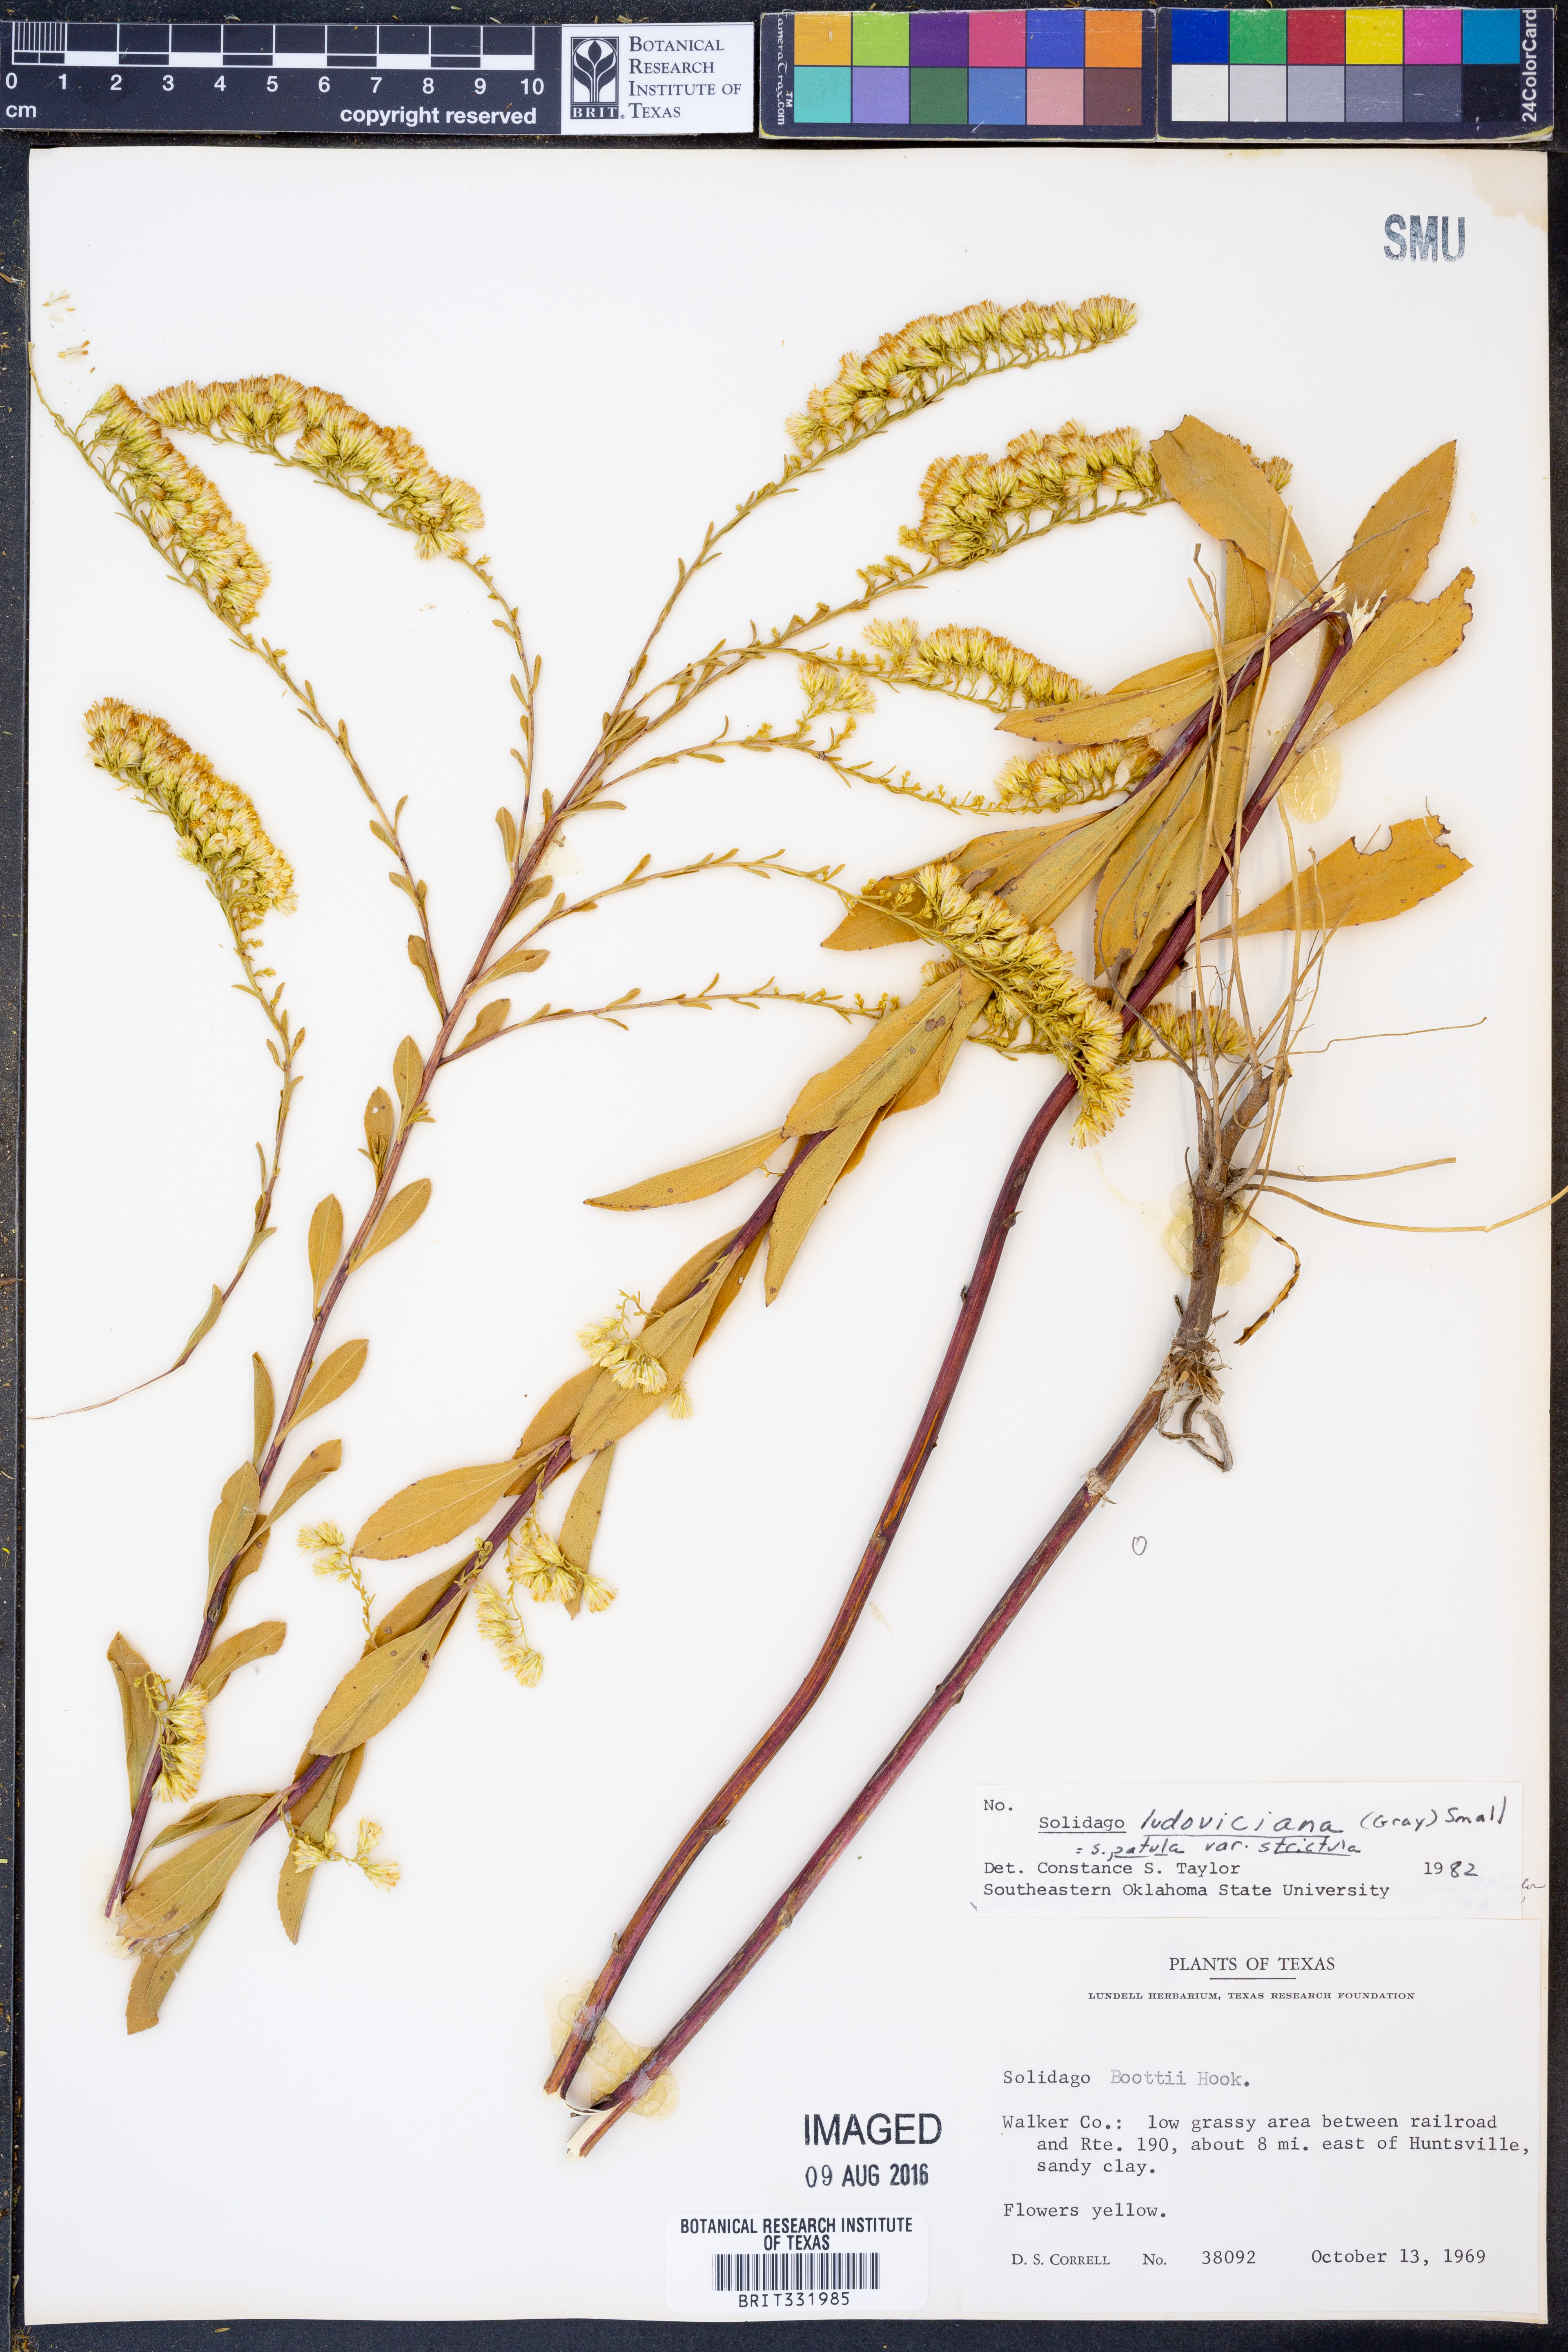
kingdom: Plantae
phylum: Tracheophyta
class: Magnoliopsida
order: Asterales
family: Asteraceae
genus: Solidago
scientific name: Solidago salicina
